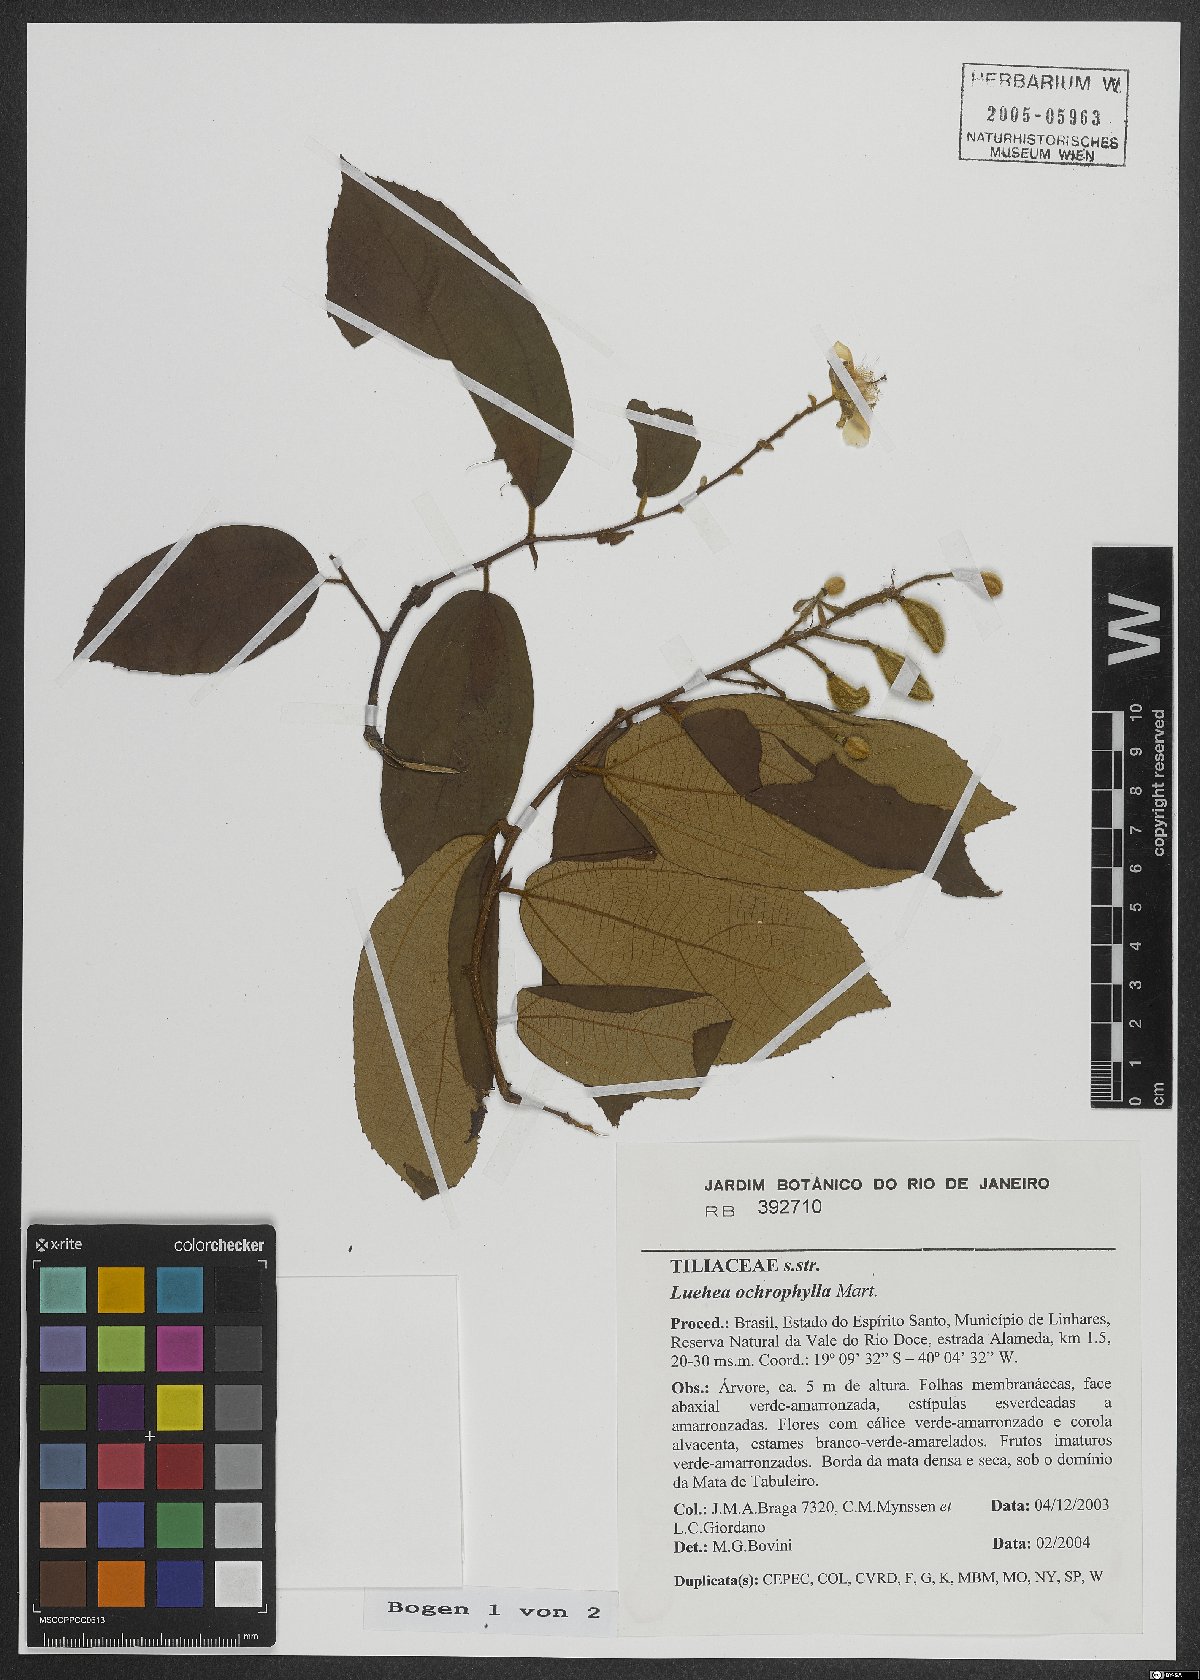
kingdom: Plantae
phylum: Tracheophyta
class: Magnoliopsida
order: Malvales
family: Malvaceae
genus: Luehea
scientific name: Luehea ochrophylla
